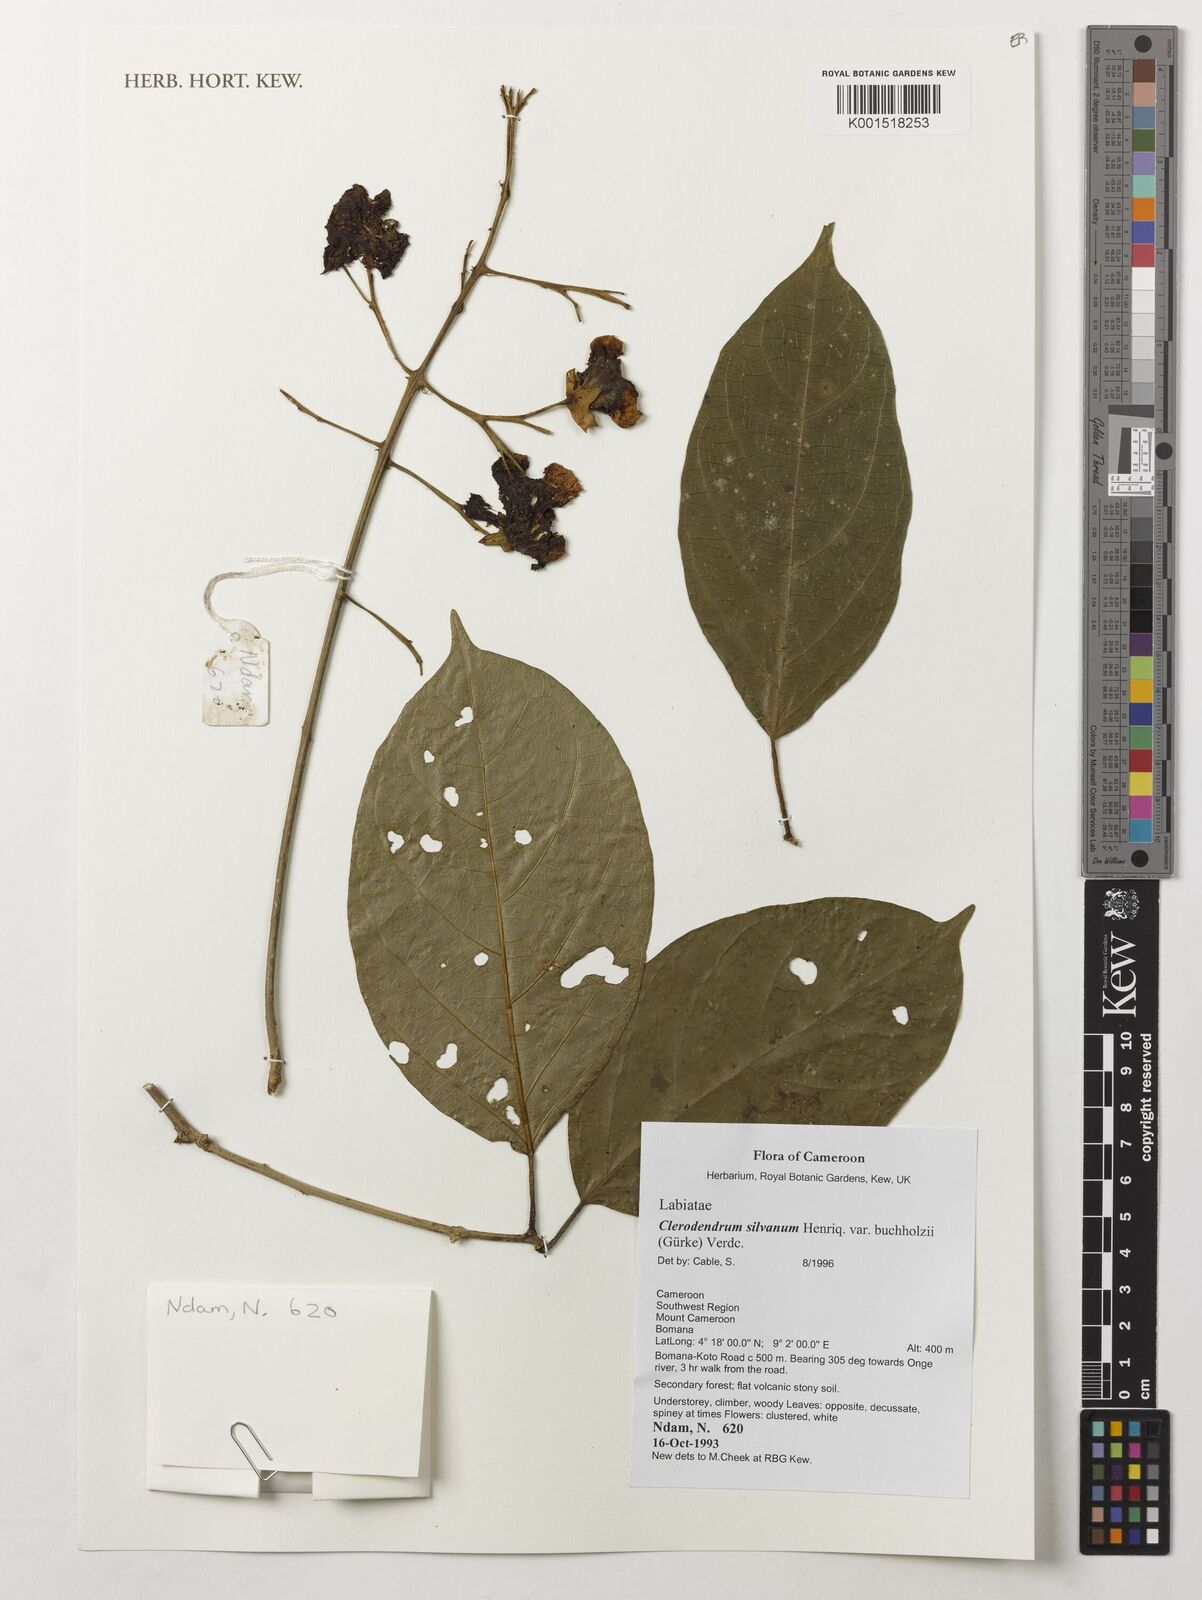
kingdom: Plantae
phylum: Tracheophyta
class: Magnoliopsida
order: Lamiales
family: Lamiaceae
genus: Clerodendrum
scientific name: Clerodendrum silvanum
